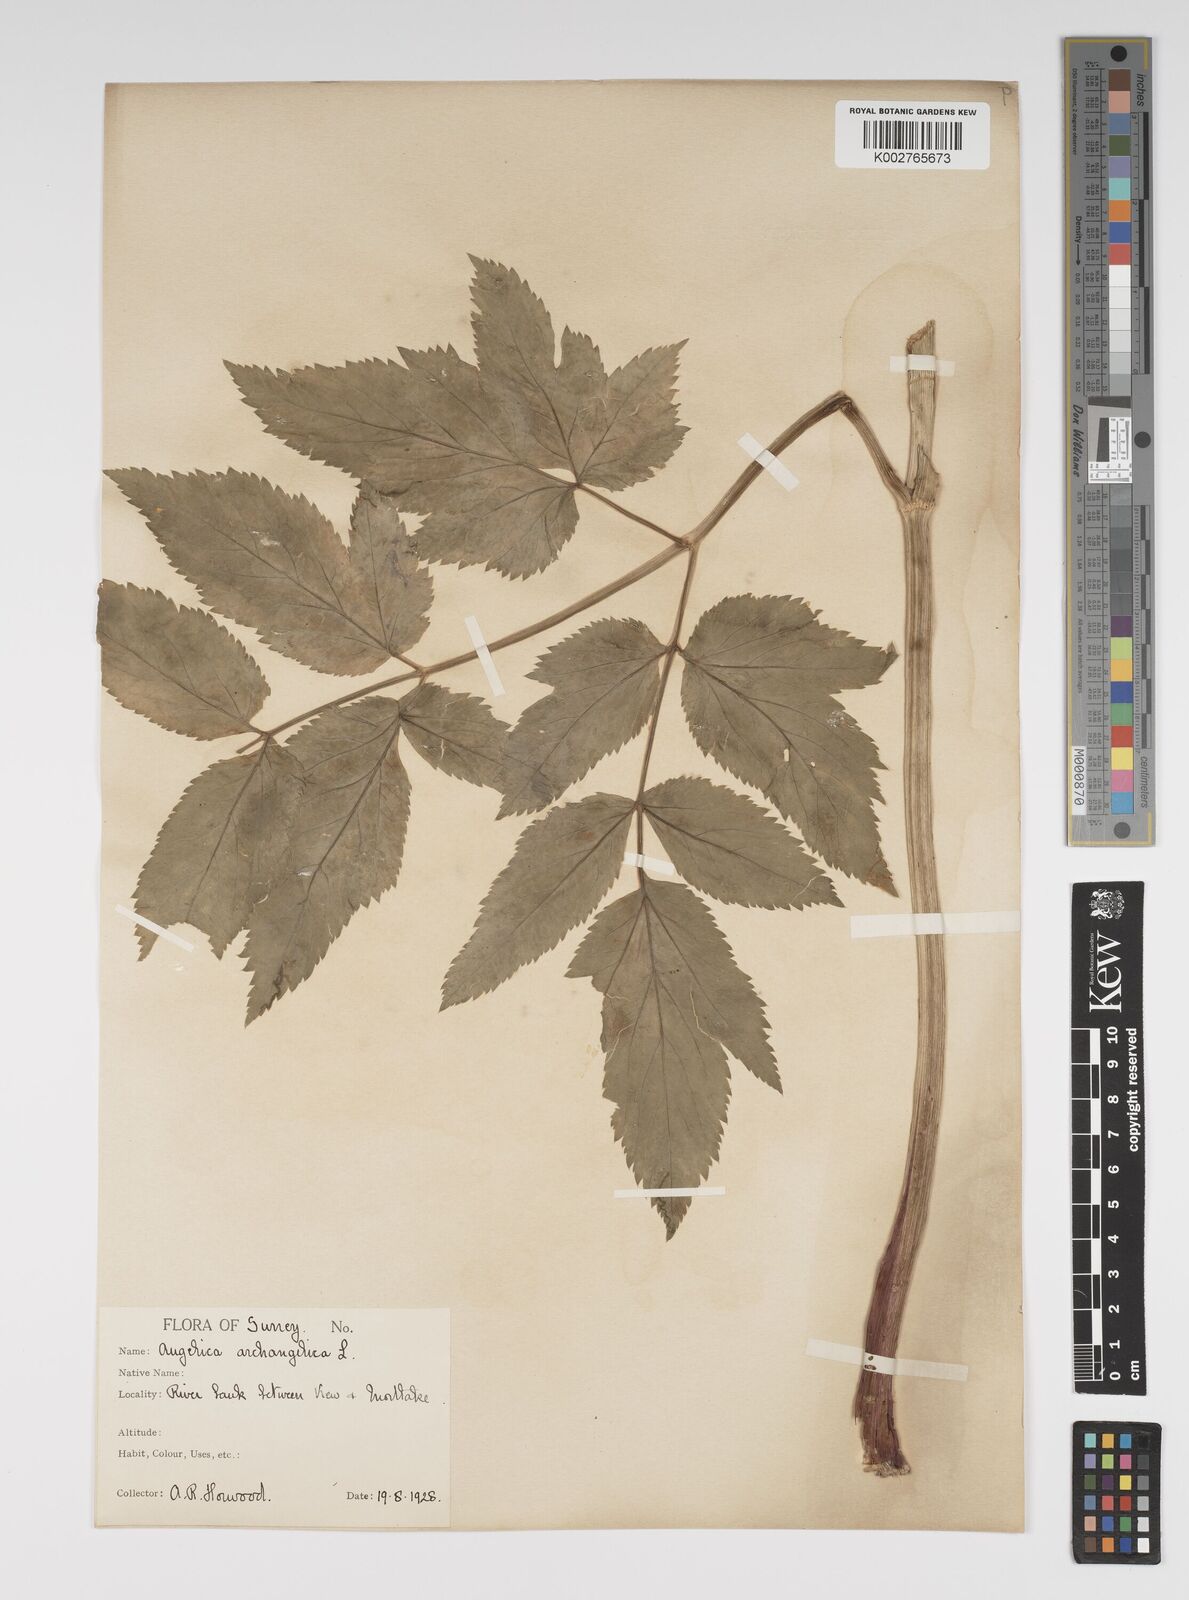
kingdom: Plantae
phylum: Tracheophyta
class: Magnoliopsida
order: Apiales
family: Apiaceae
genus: Angelica
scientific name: Angelica archangelica
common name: Garden angelica
